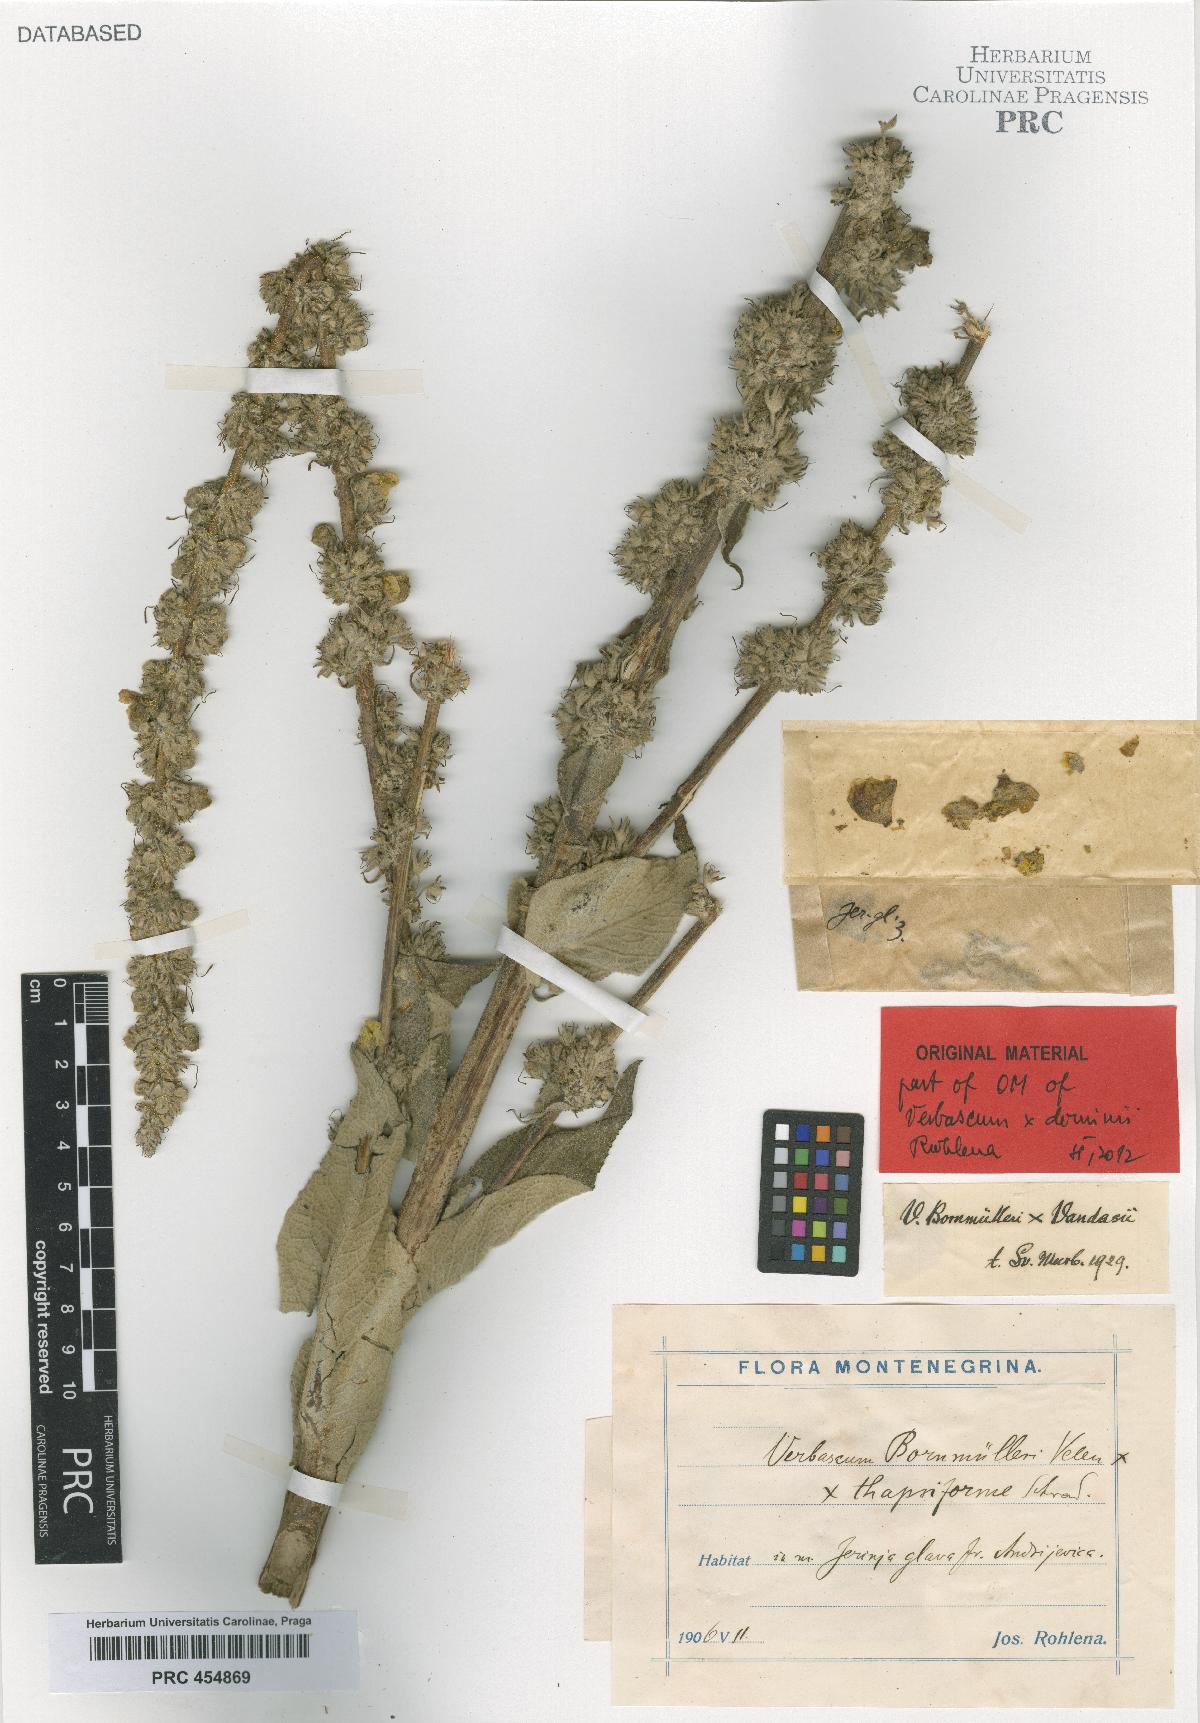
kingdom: Plantae
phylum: Tracheophyta
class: Magnoliopsida
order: Lamiales
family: Scrophulariaceae
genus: Verbascum
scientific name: Verbascum dominii
